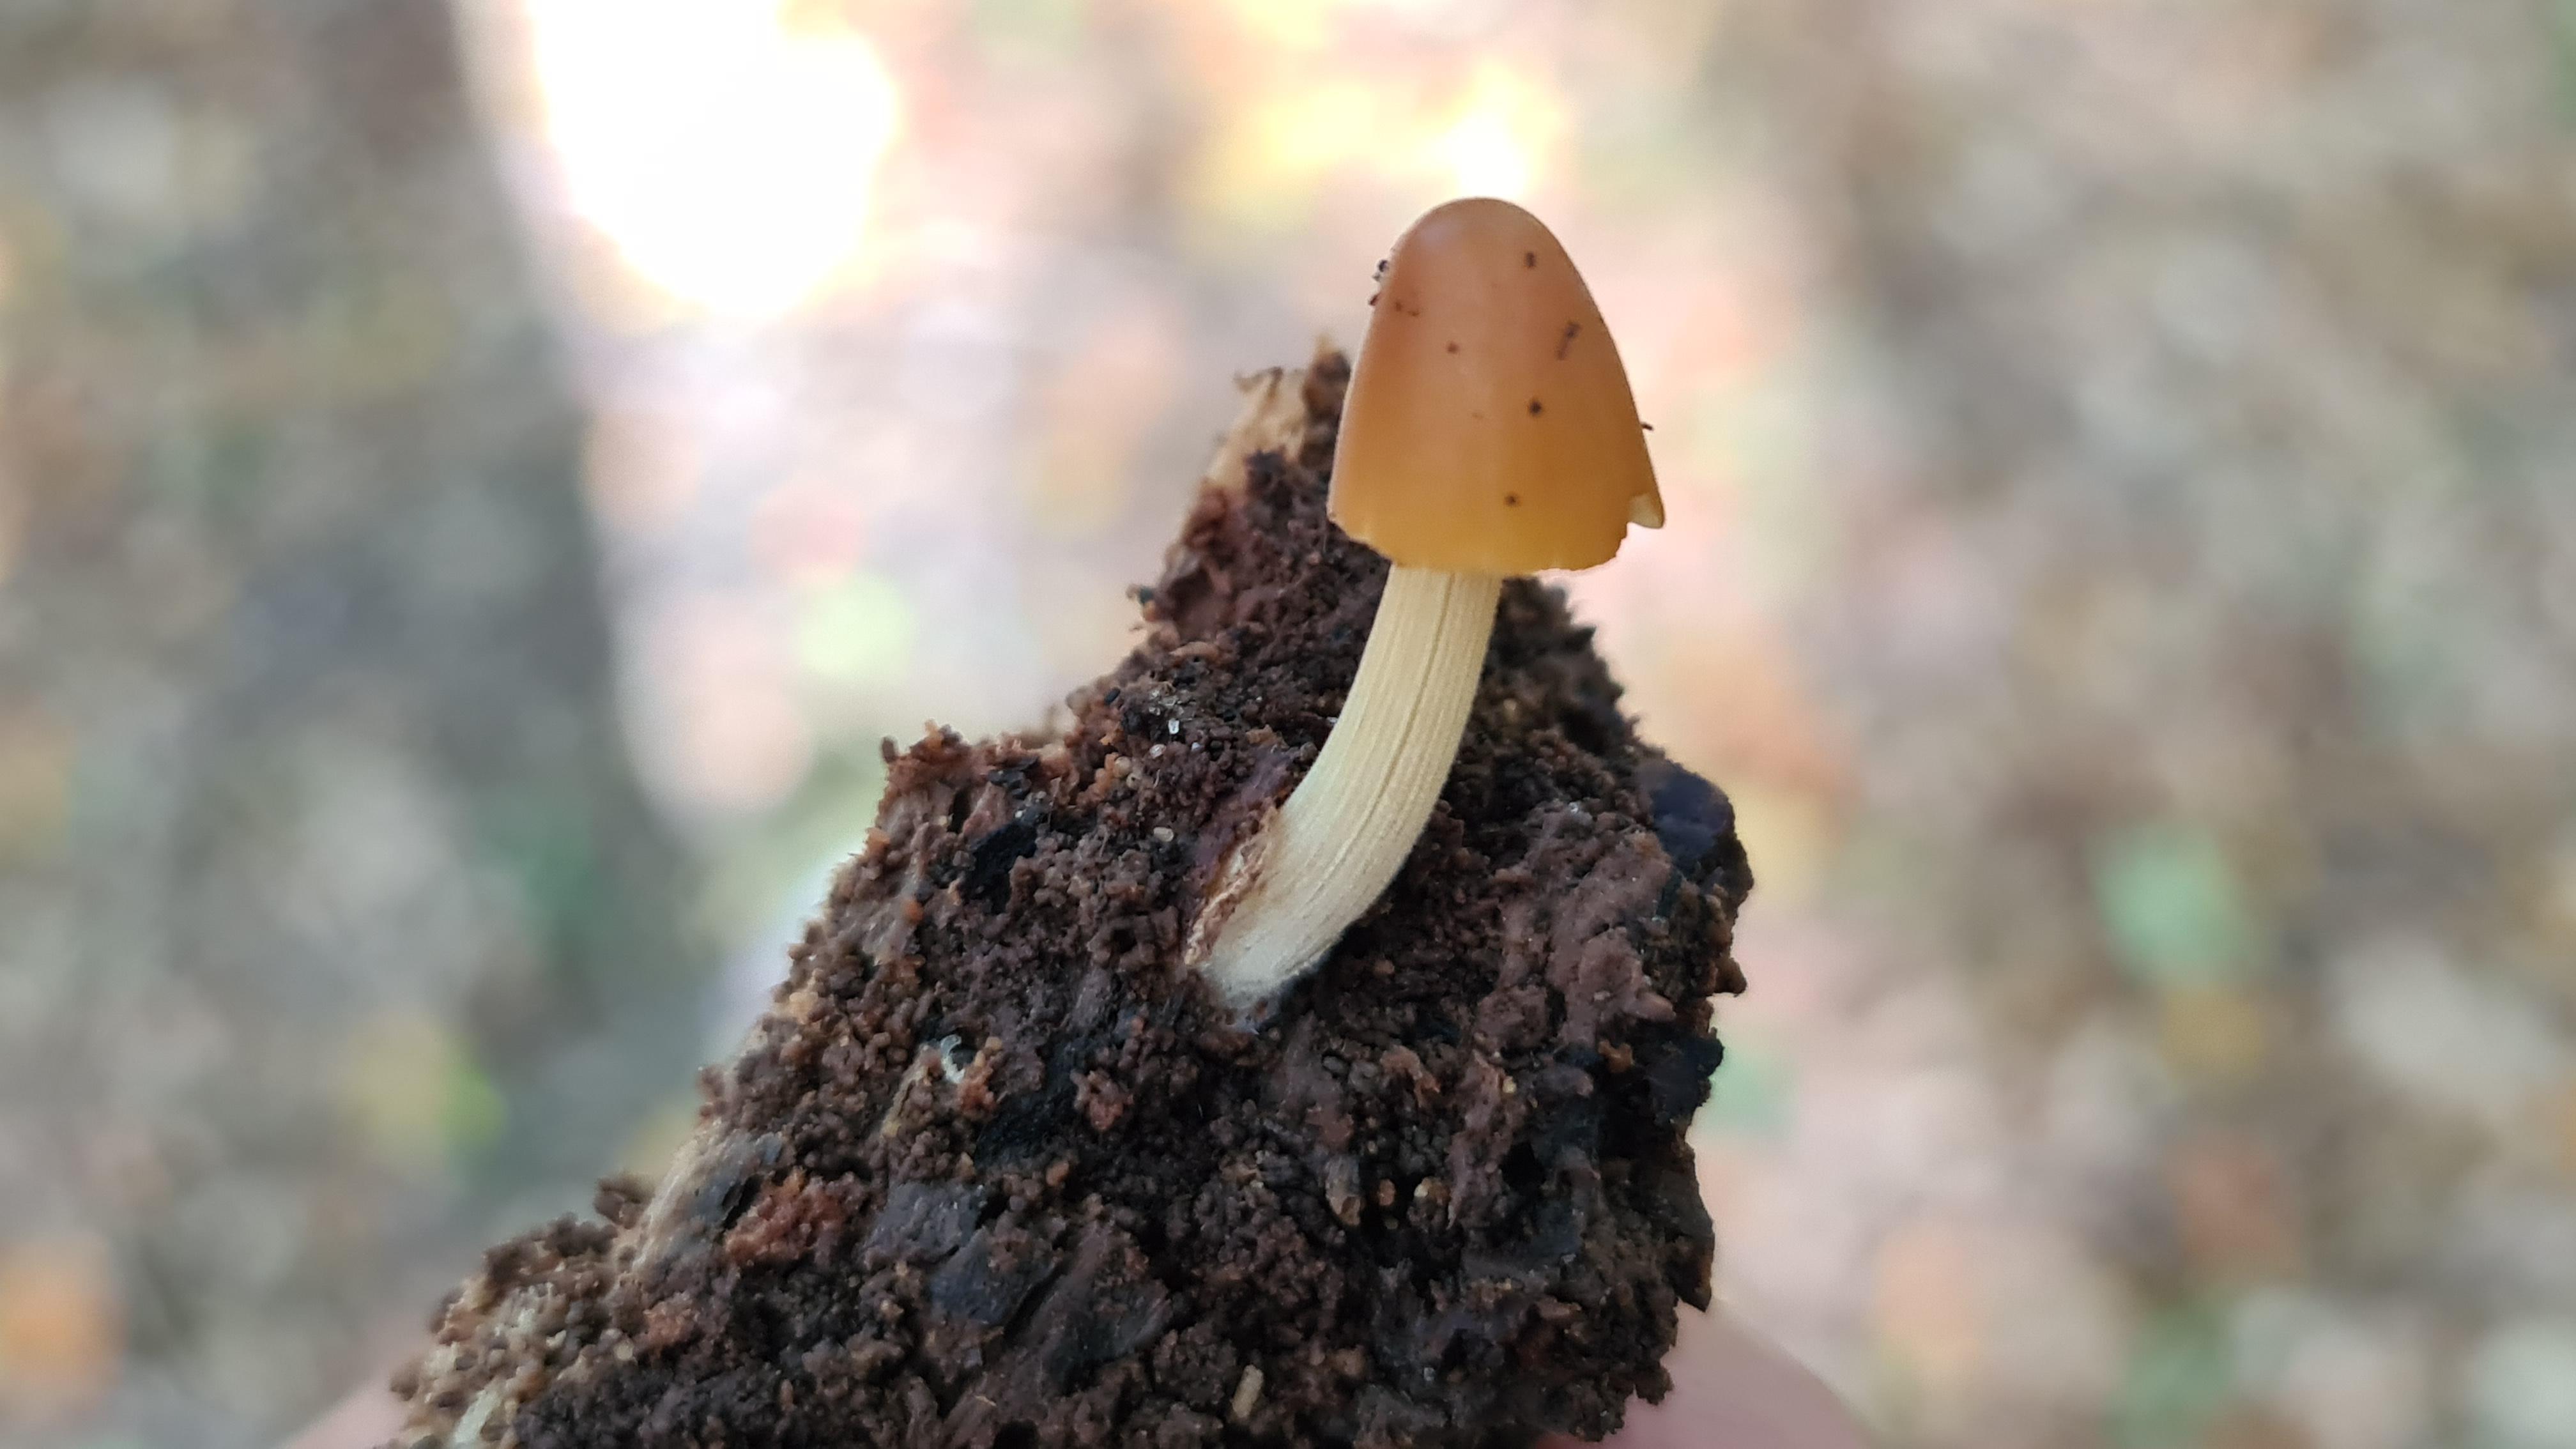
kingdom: Fungi
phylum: Basidiomycota
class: Agaricomycetes
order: Agaricales
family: Bolbitiaceae
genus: Conocybe
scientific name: Conocybe subpubescens
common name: krat-keglehat
